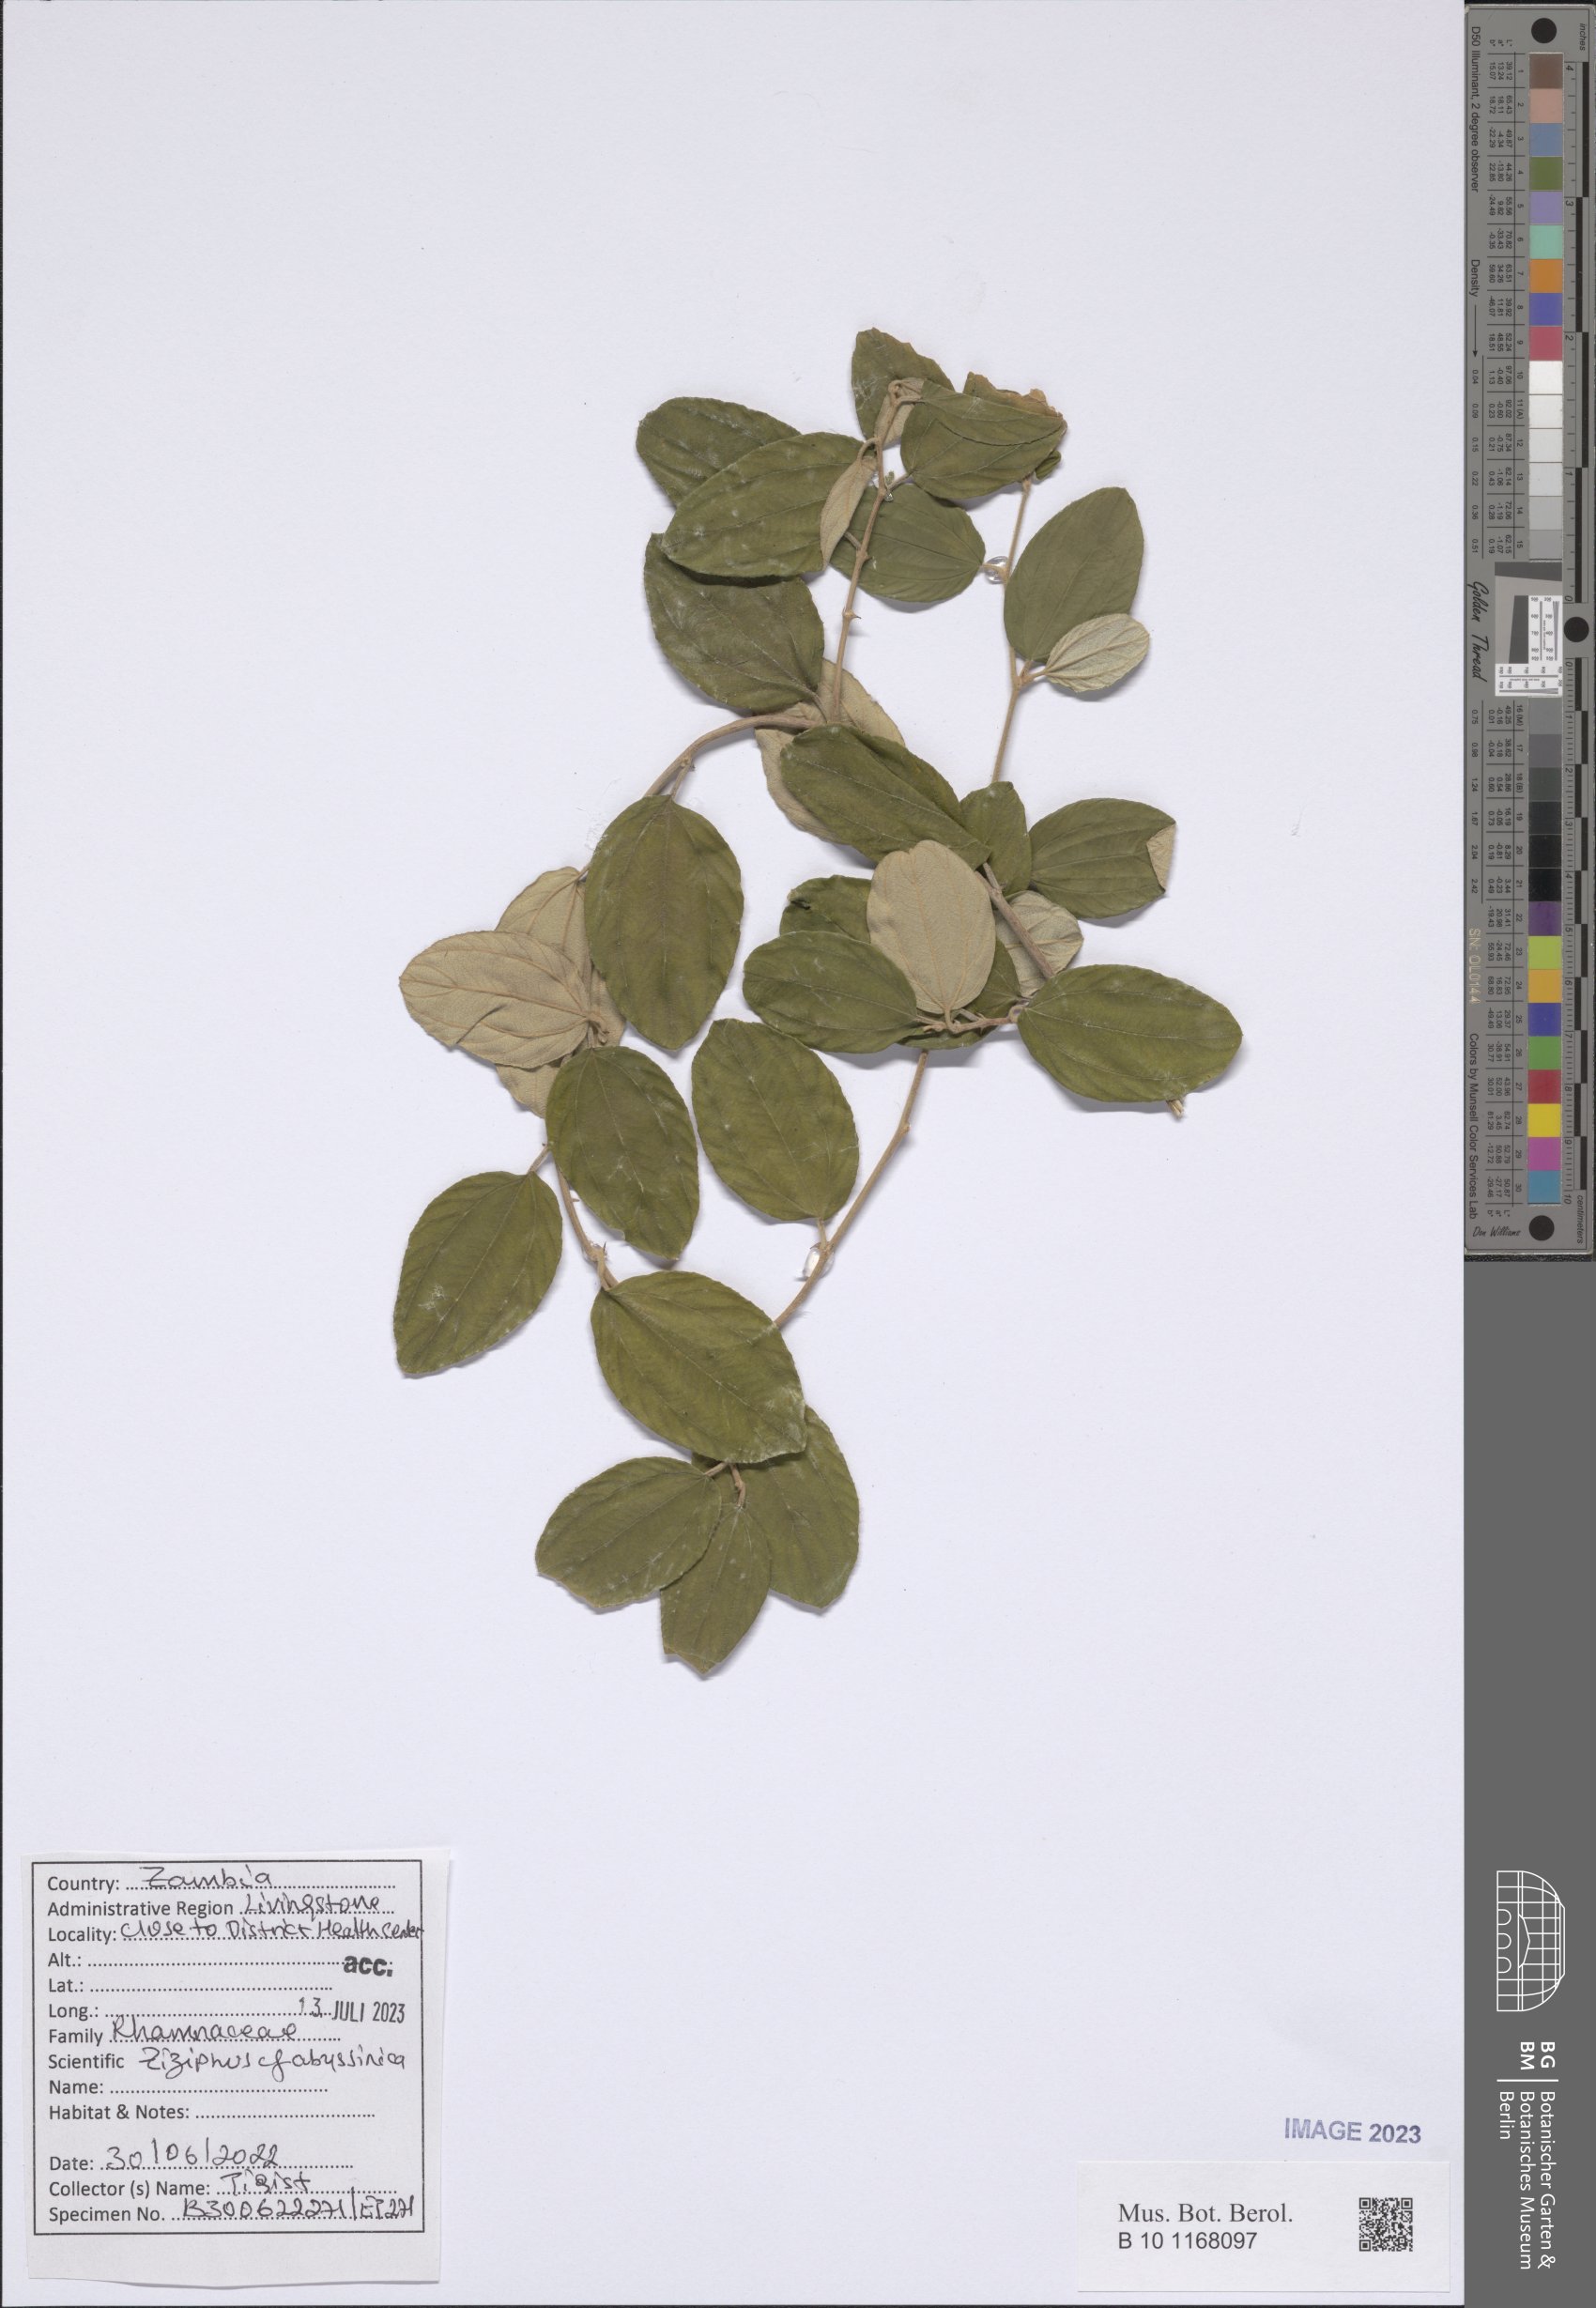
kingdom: Plantae
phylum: Tracheophyta
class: Magnoliopsida
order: Rosales
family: Rhamnaceae
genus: Ziziphus
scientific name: Ziziphus abyssinica
